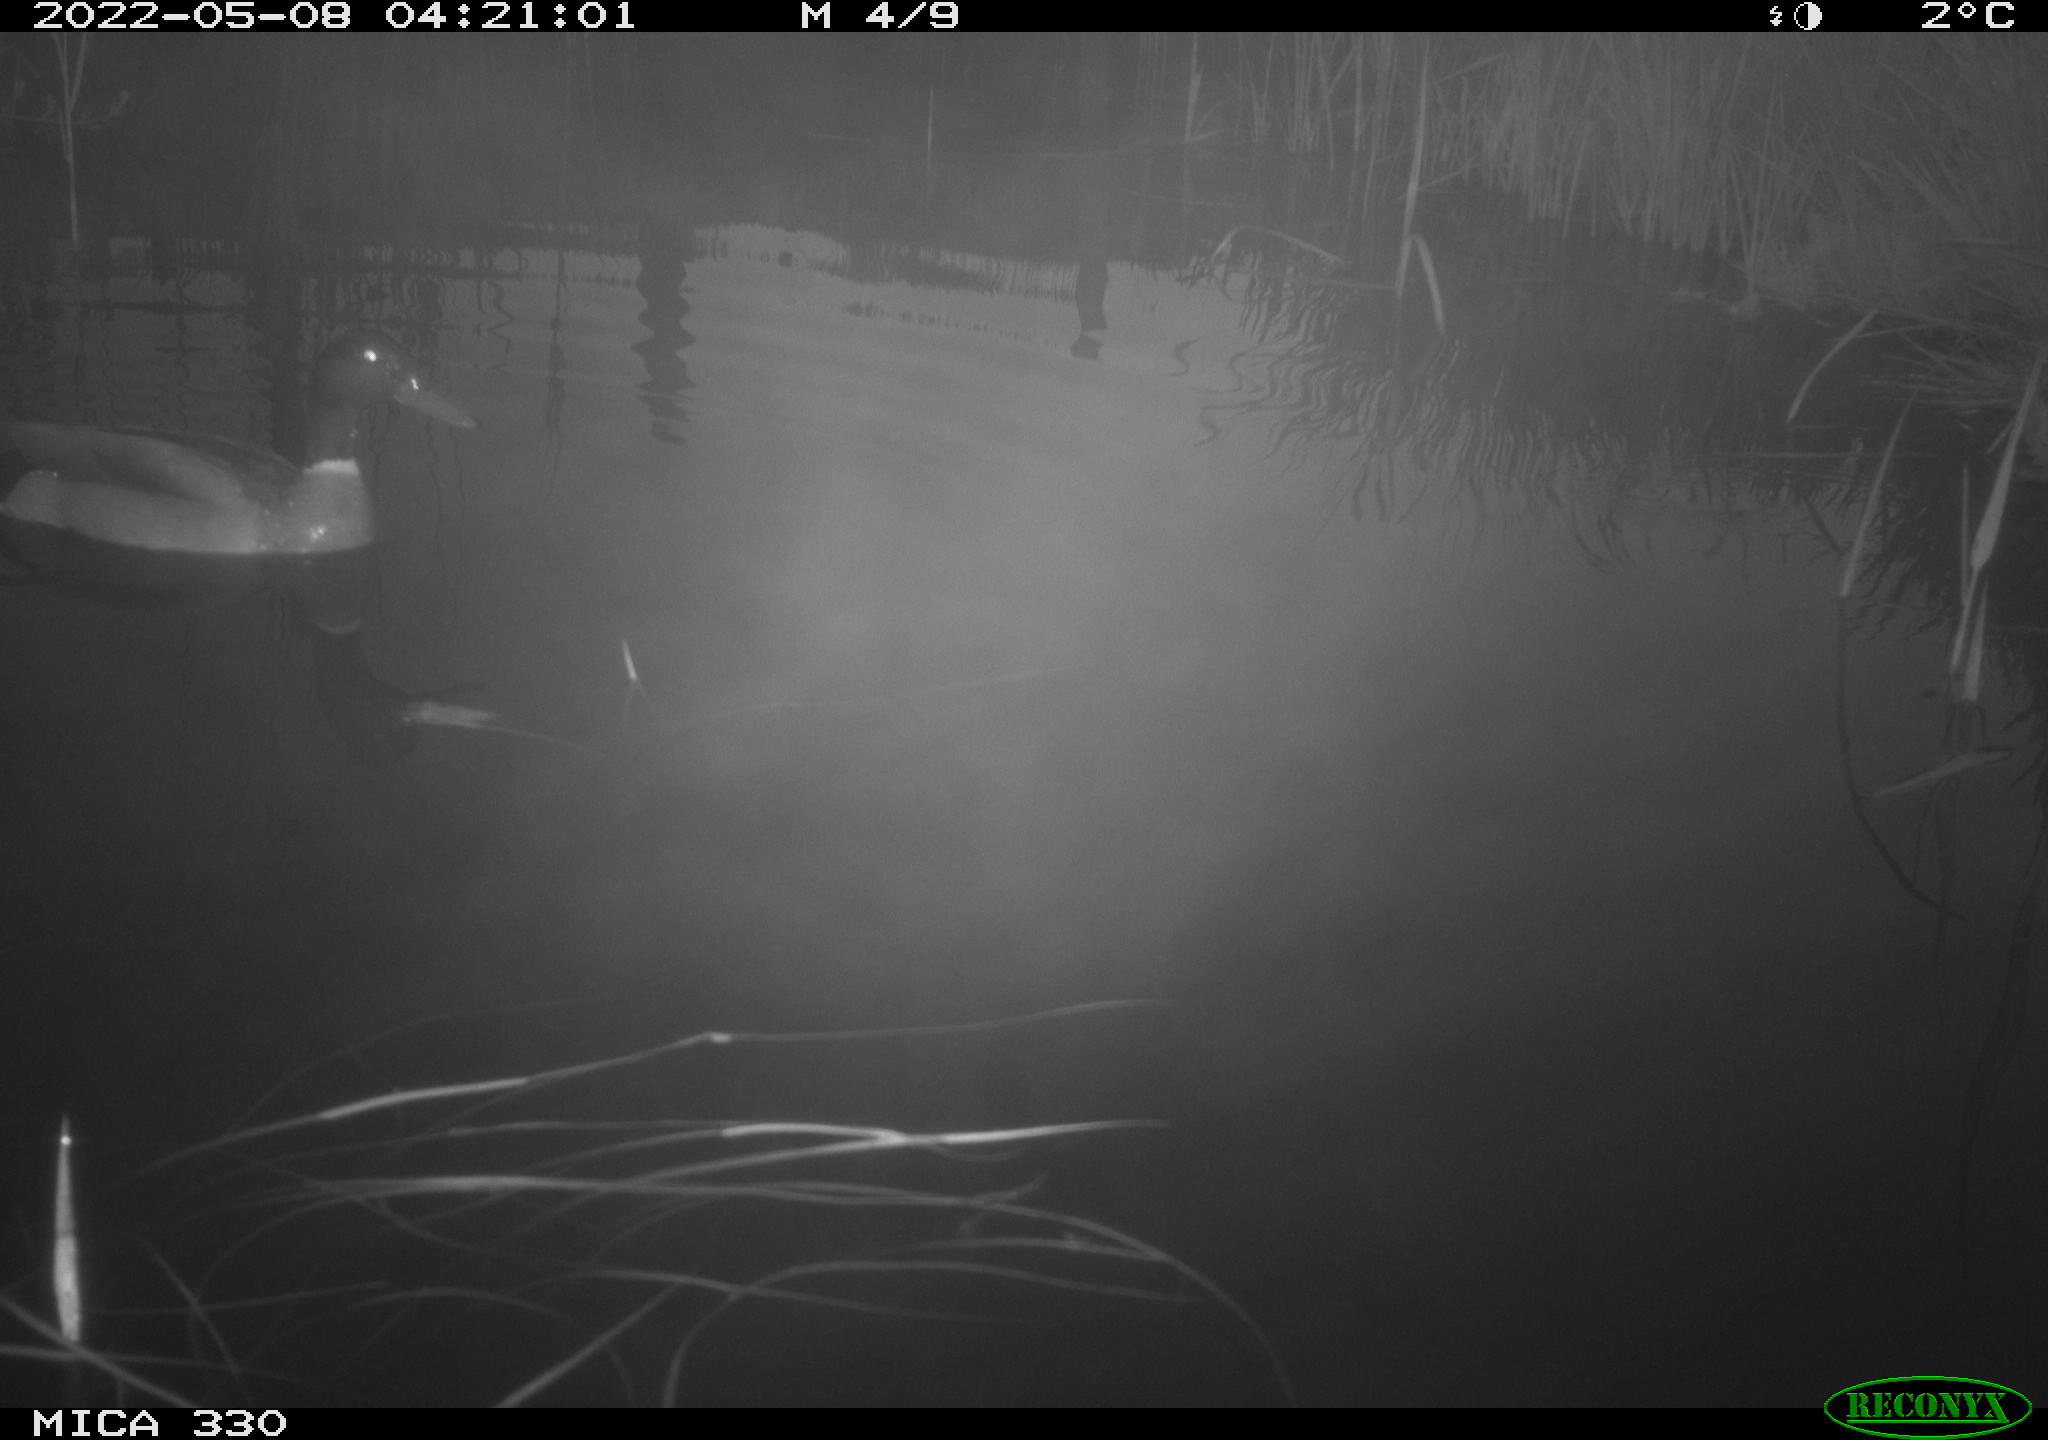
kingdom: Animalia
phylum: Chordata
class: Aves
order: Anseriformes
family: Anatidae
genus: Anas
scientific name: Anas platyrhynchos
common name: Mallard
